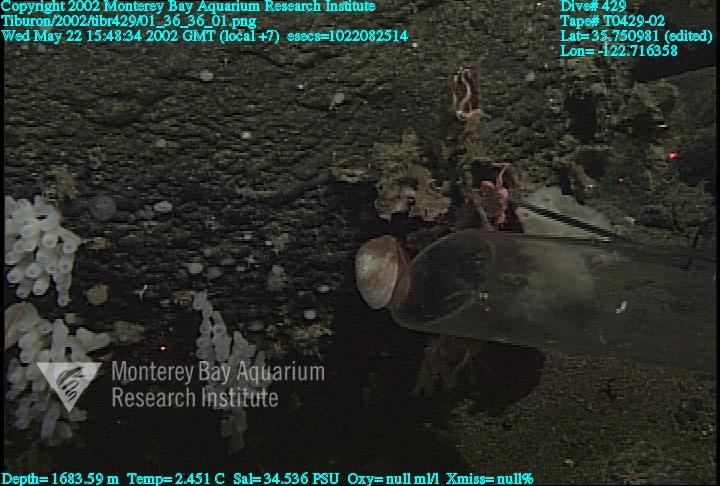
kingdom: Animalia
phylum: Porifera
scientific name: Porifera
